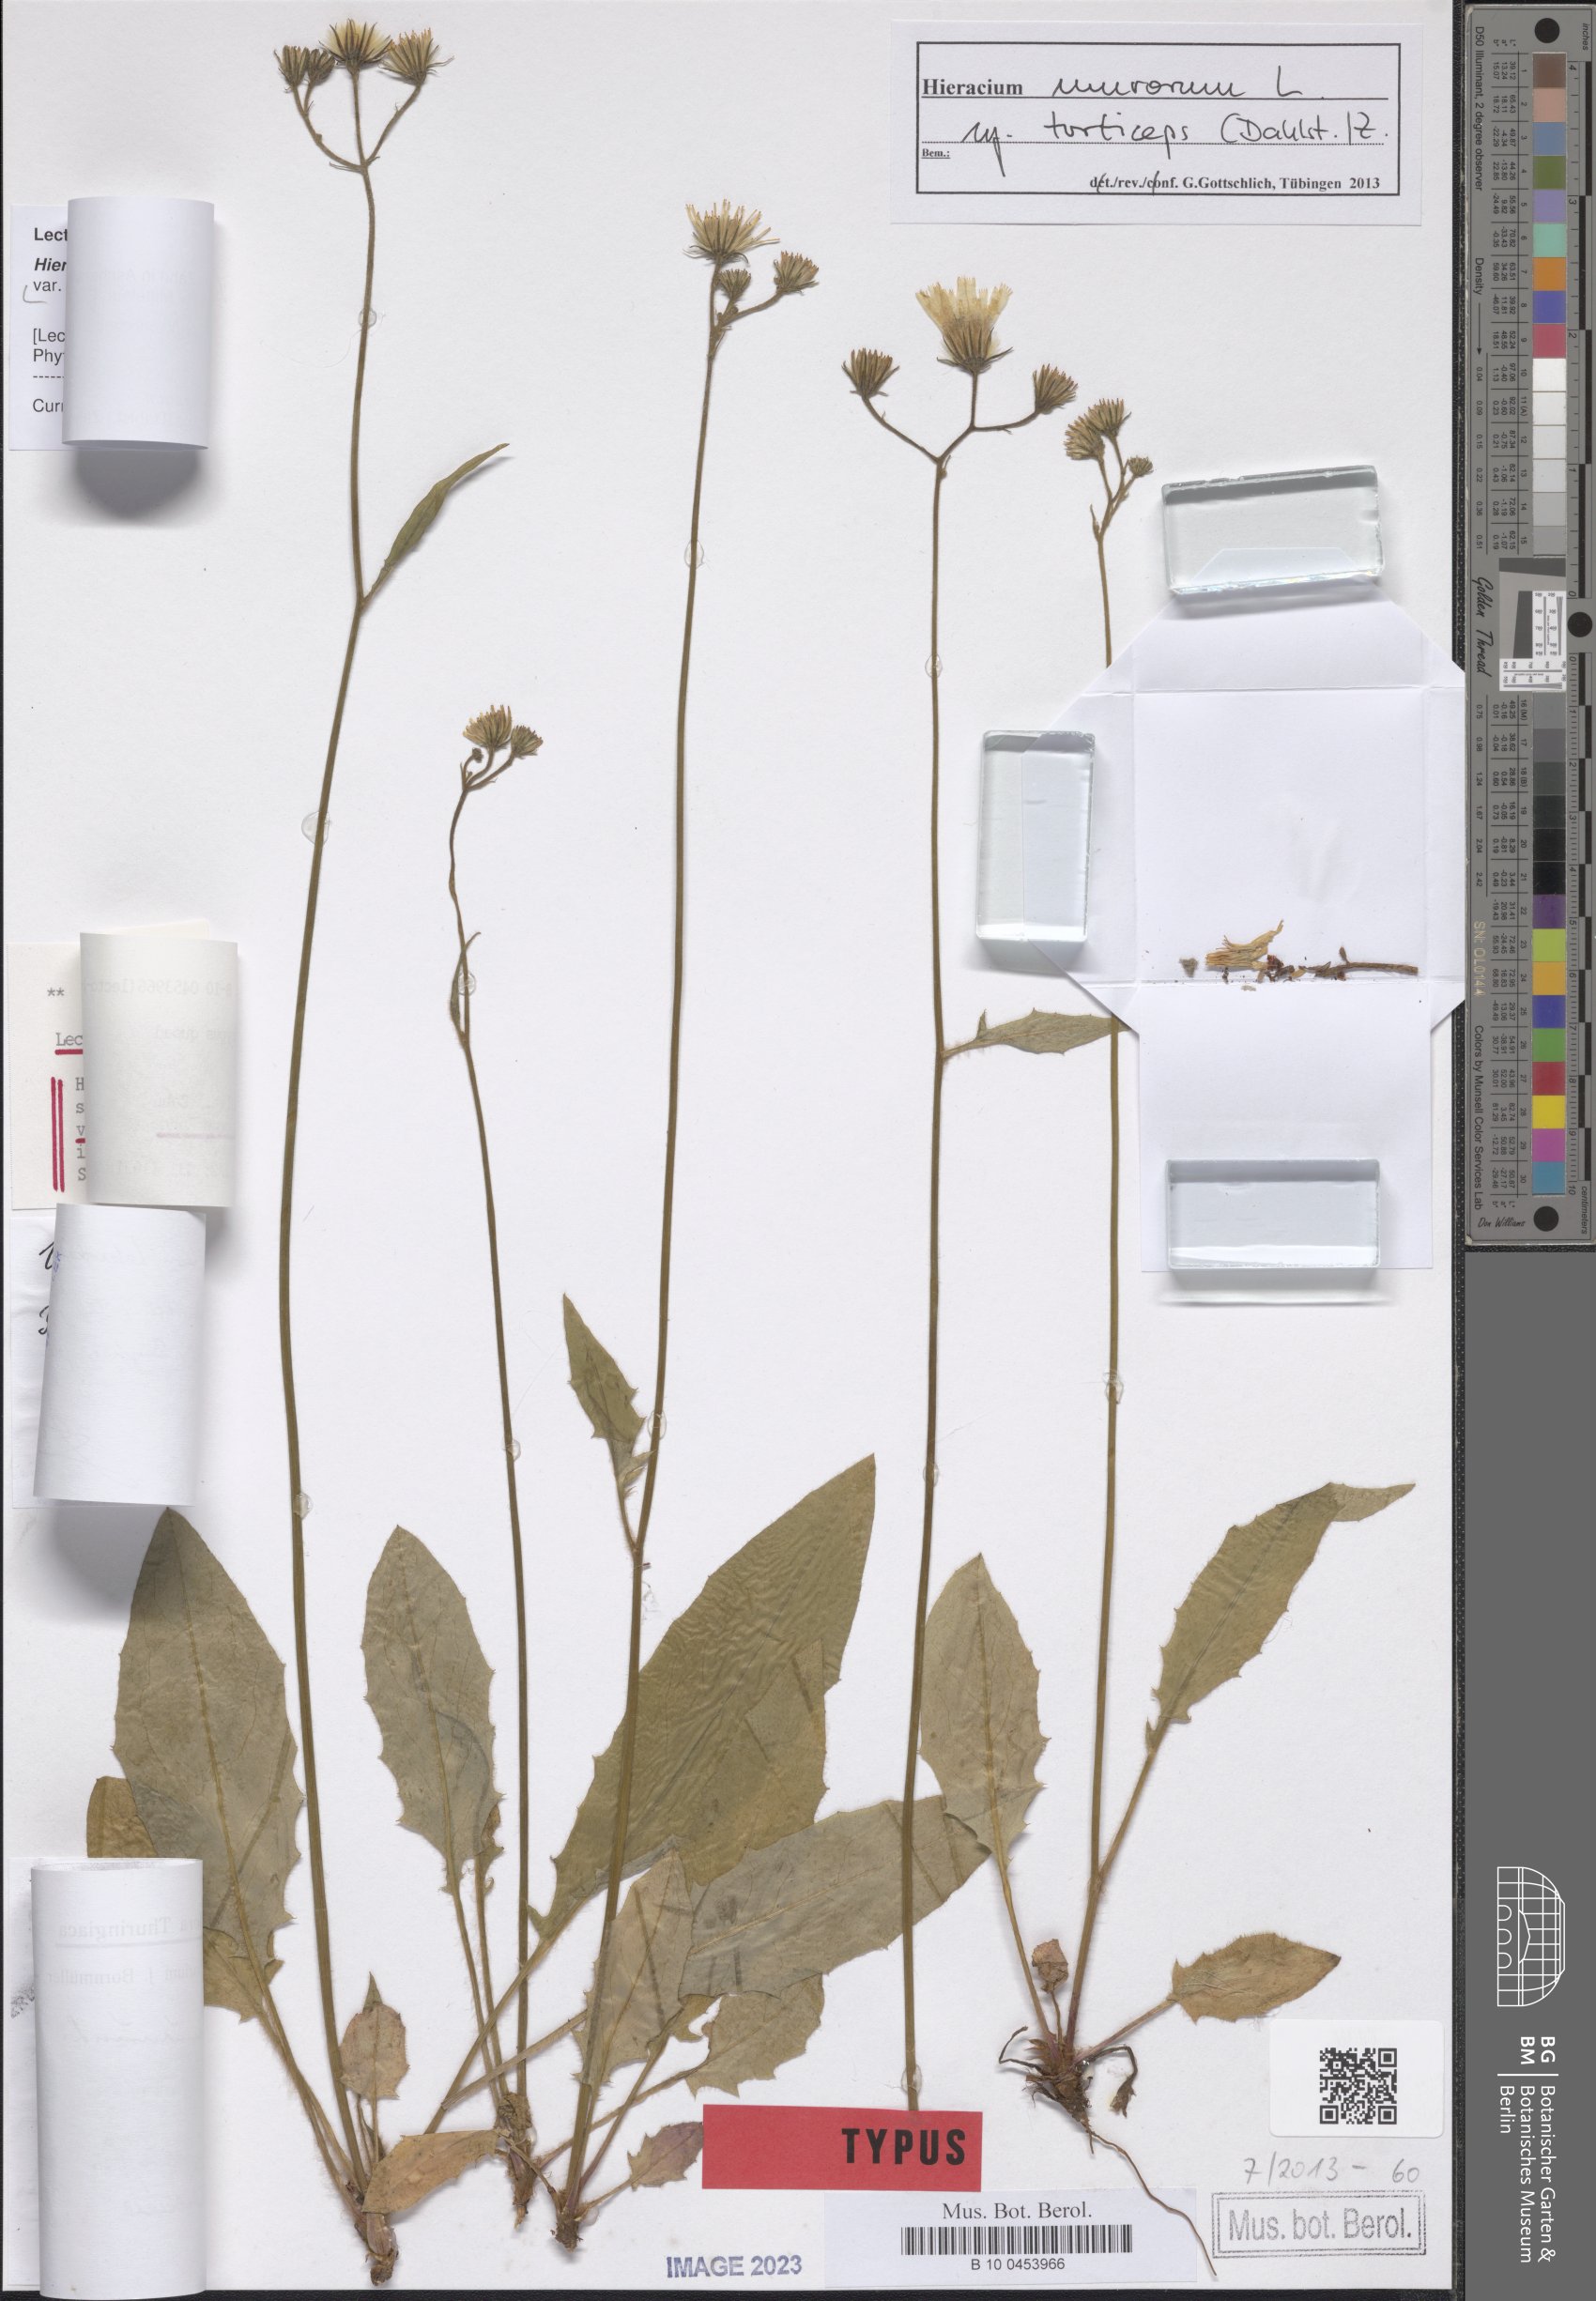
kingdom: Plantae
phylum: Tracheophyta
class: Magnoliopsida
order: Asterales
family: Asteraceae
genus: Hieracium
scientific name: Hieracium murorum
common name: Wall hawkweed
